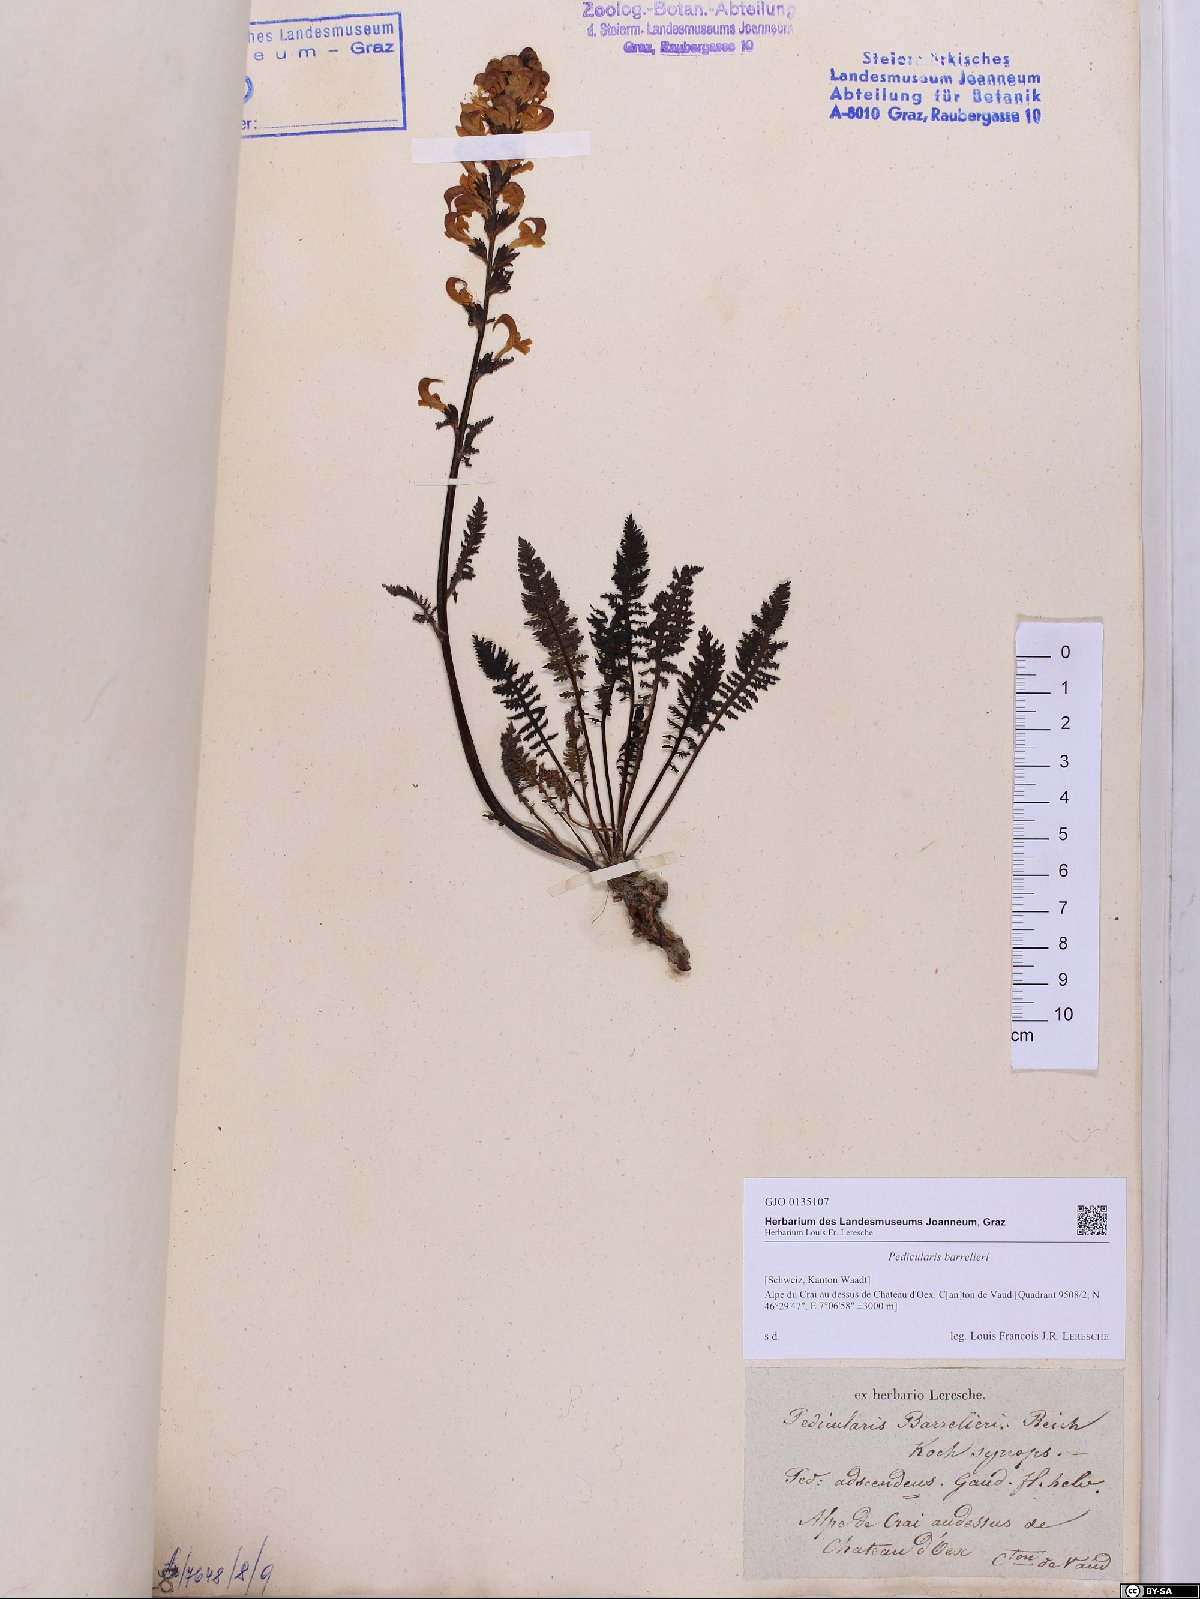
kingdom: Plantae
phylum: Tracheophyta
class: Magnoliopsida
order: Lamiales
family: Orobanchaceae
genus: Pedicularis
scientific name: Pedicularis ascendens
